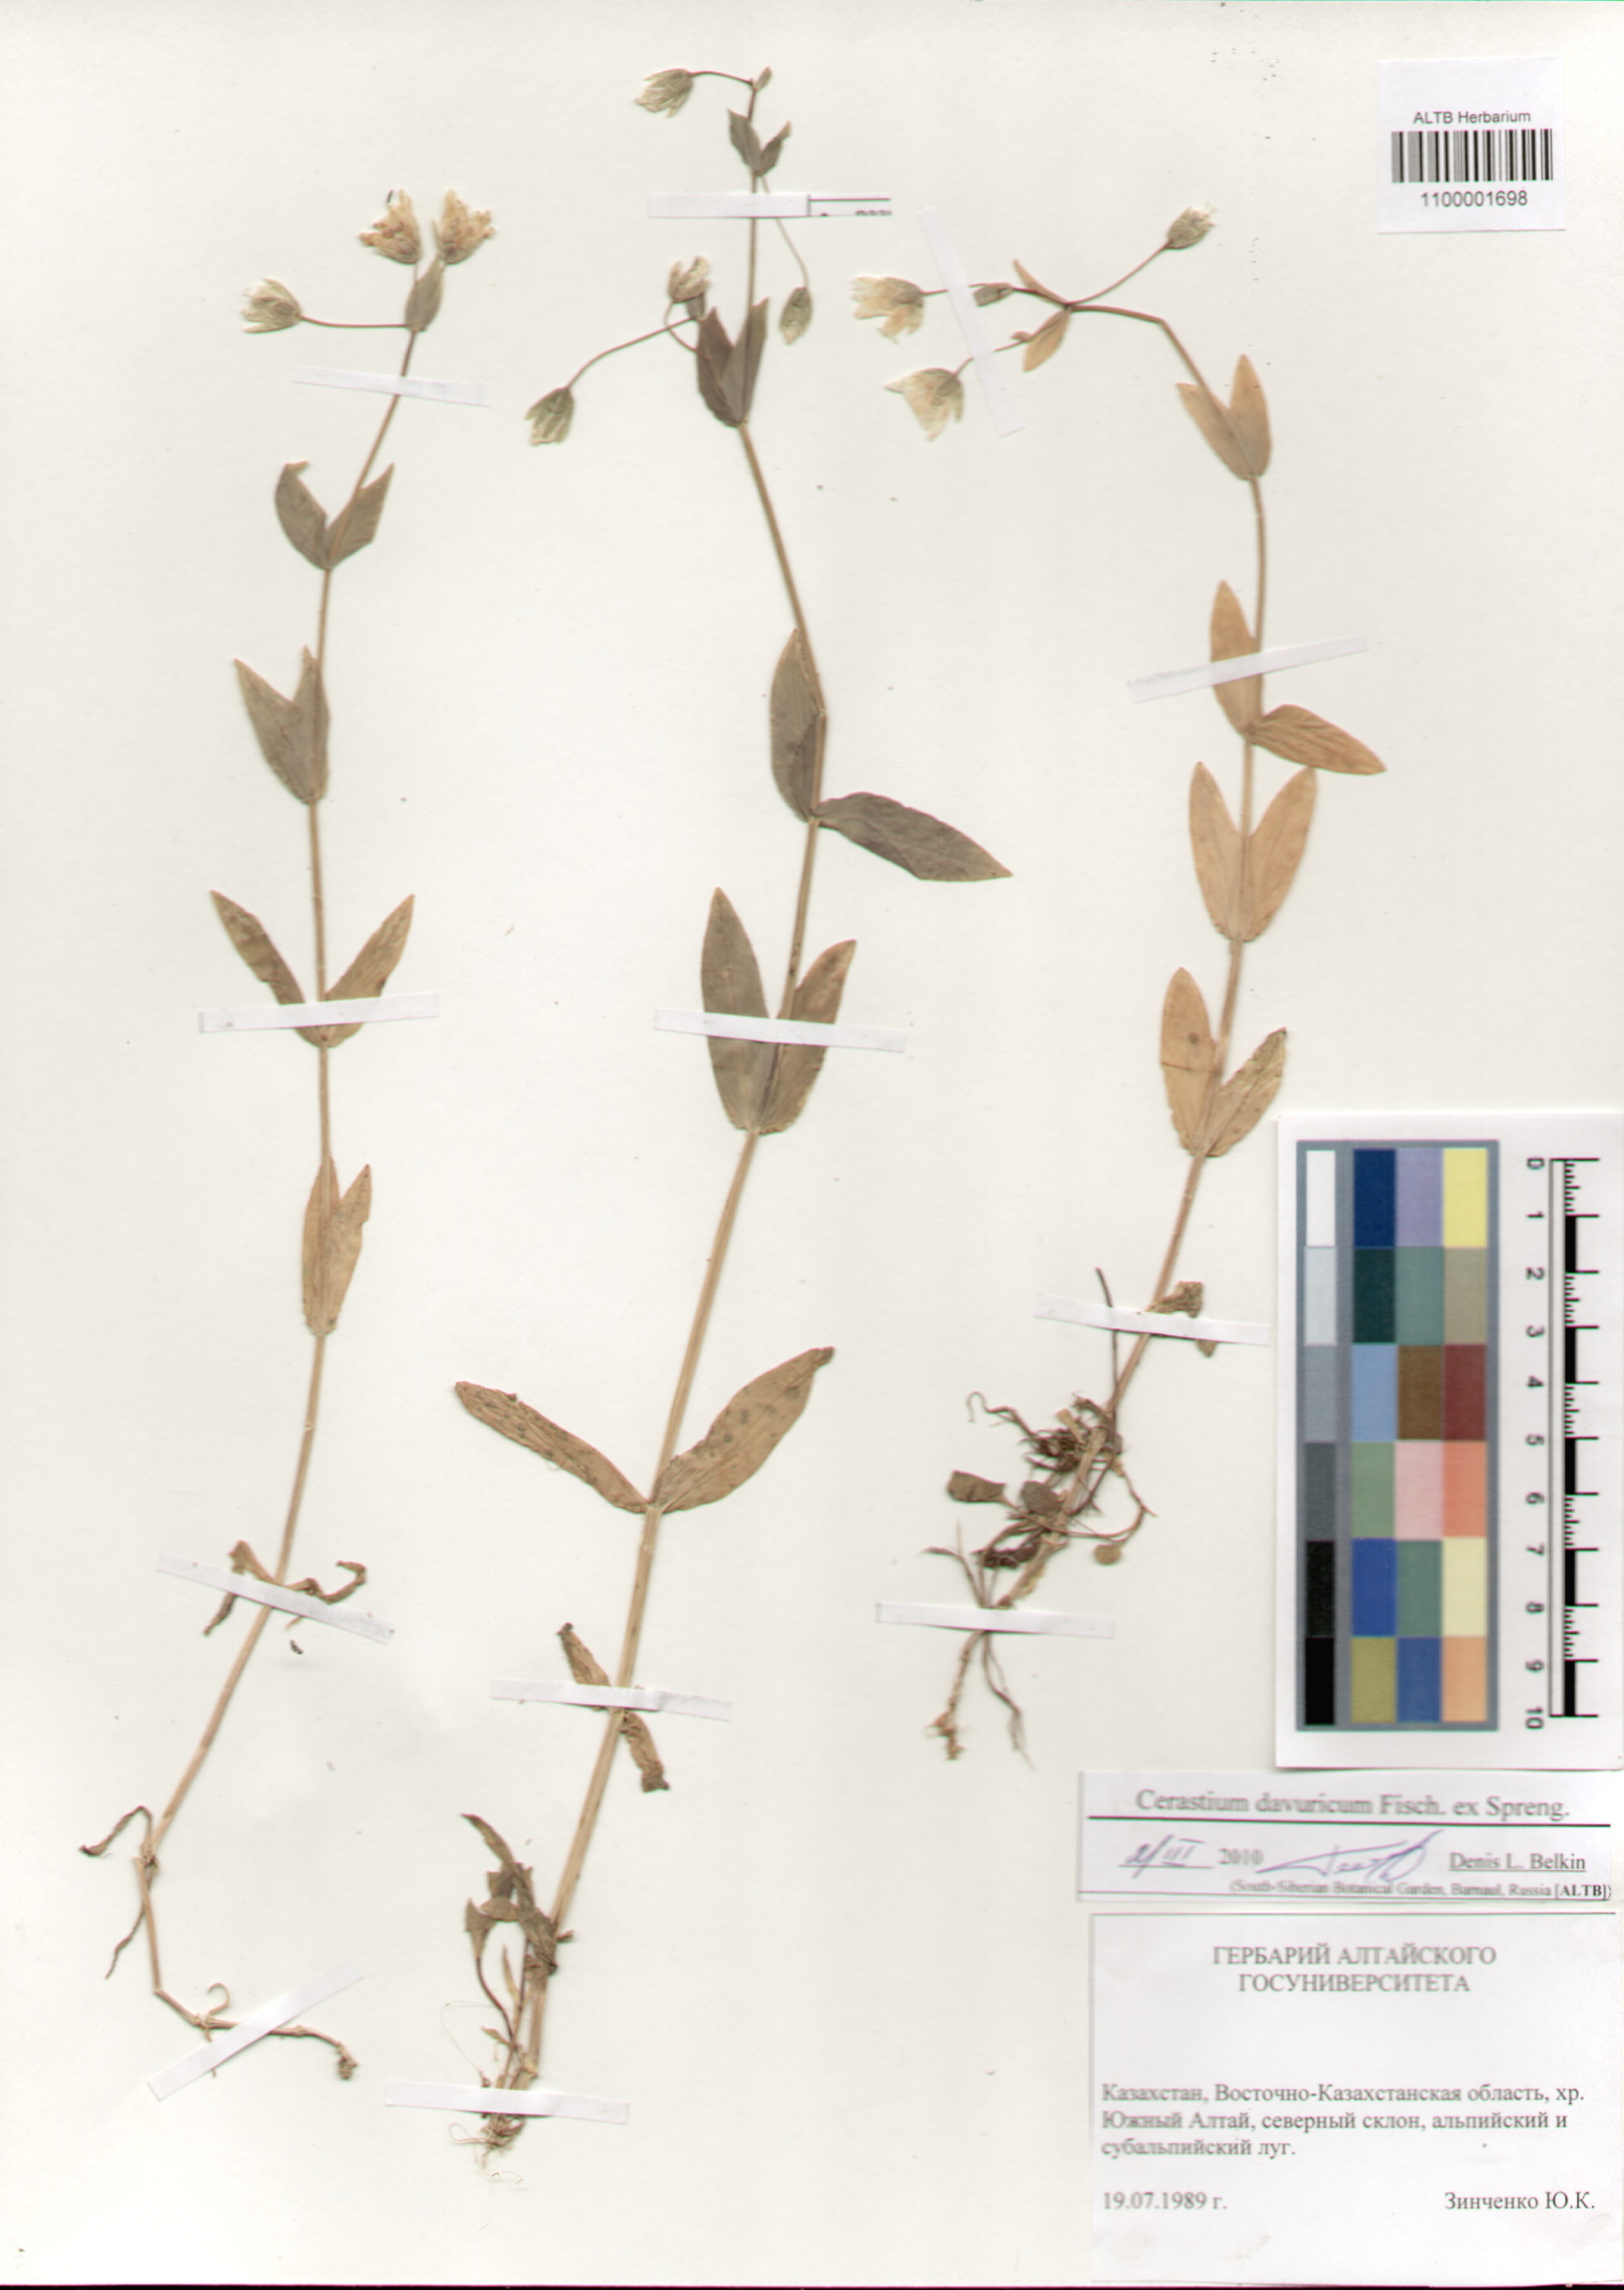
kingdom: Plantae
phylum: Tracheophyta
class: Magnoliopsida
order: Caryophyllales
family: Caryophyllaceae
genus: Dichodon
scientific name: Dichodon davuricum
